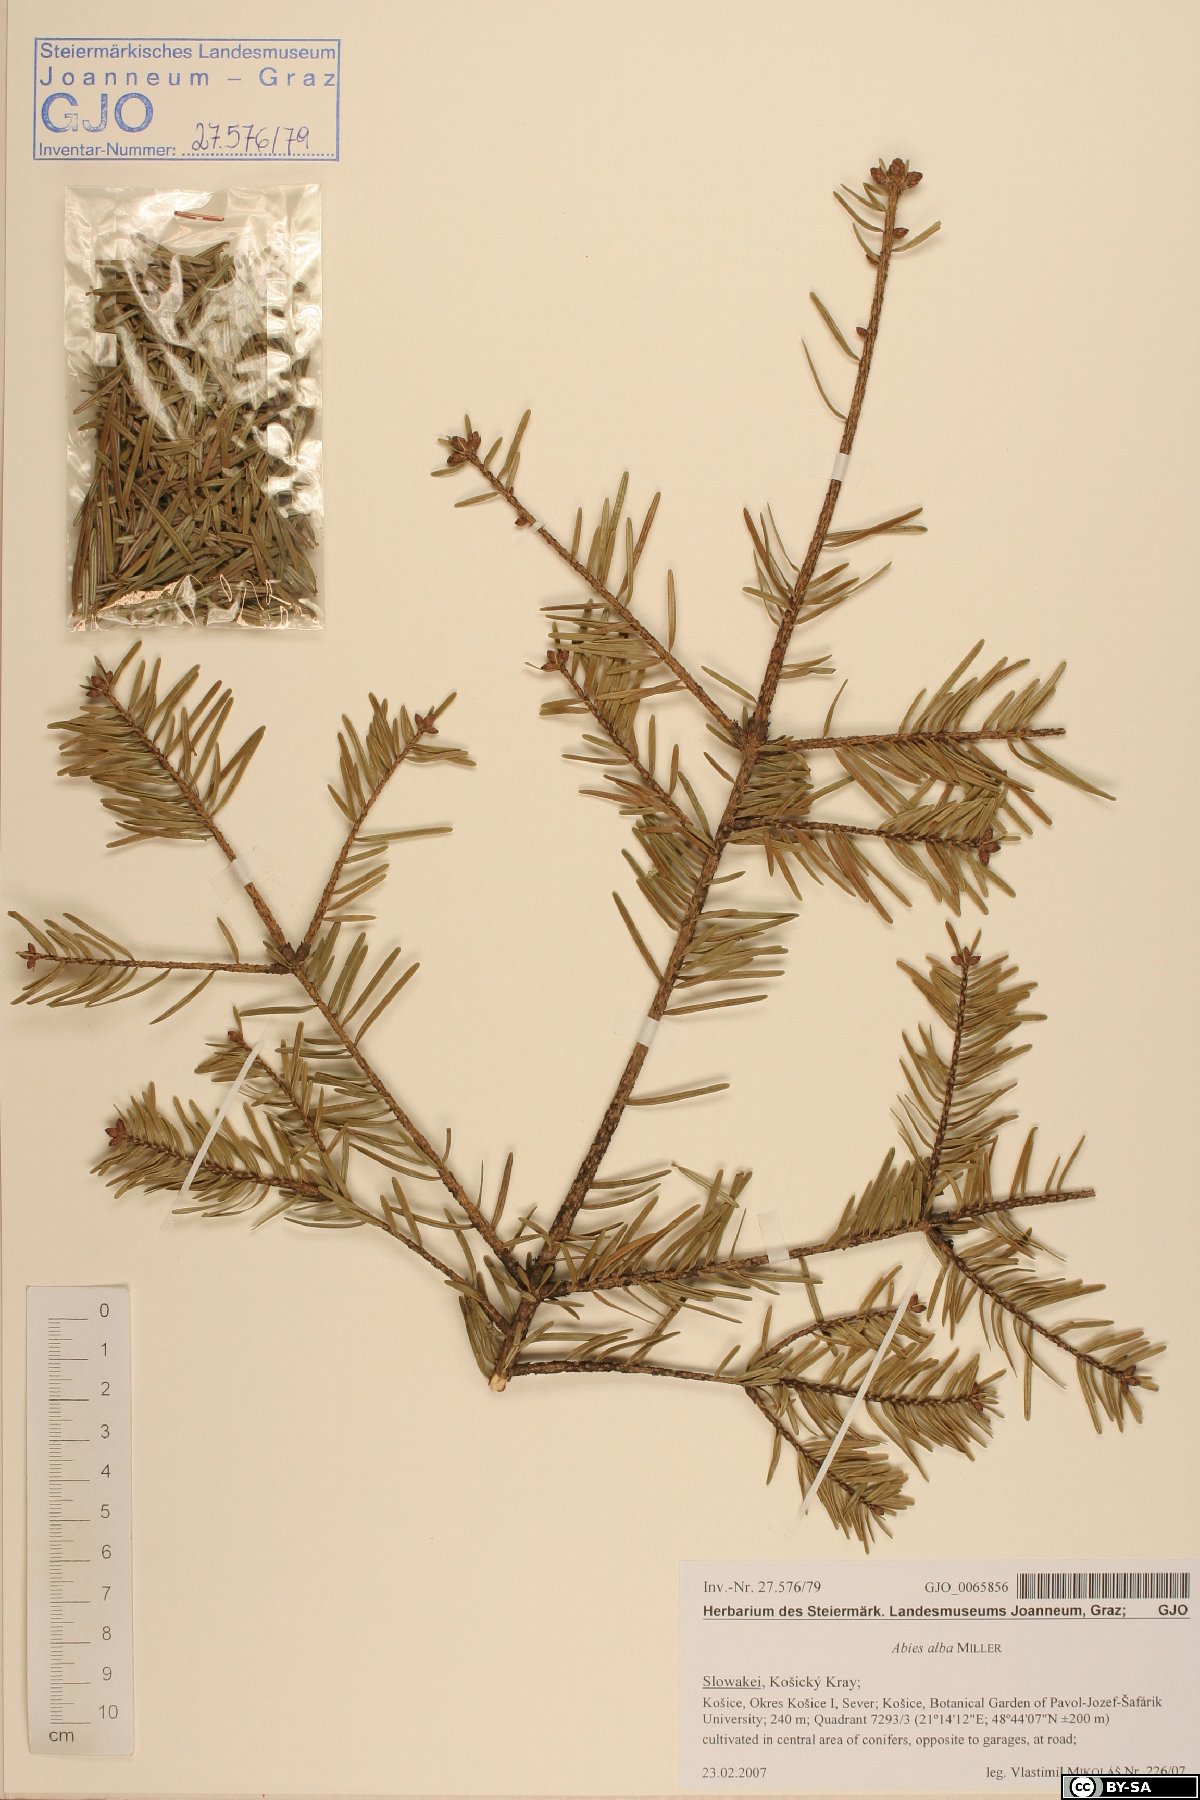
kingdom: Plantae
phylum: Tracheophyta
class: Pinopsida
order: Pinales
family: Pinaceae
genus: Abies
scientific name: Abies alba
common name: Silver fir
